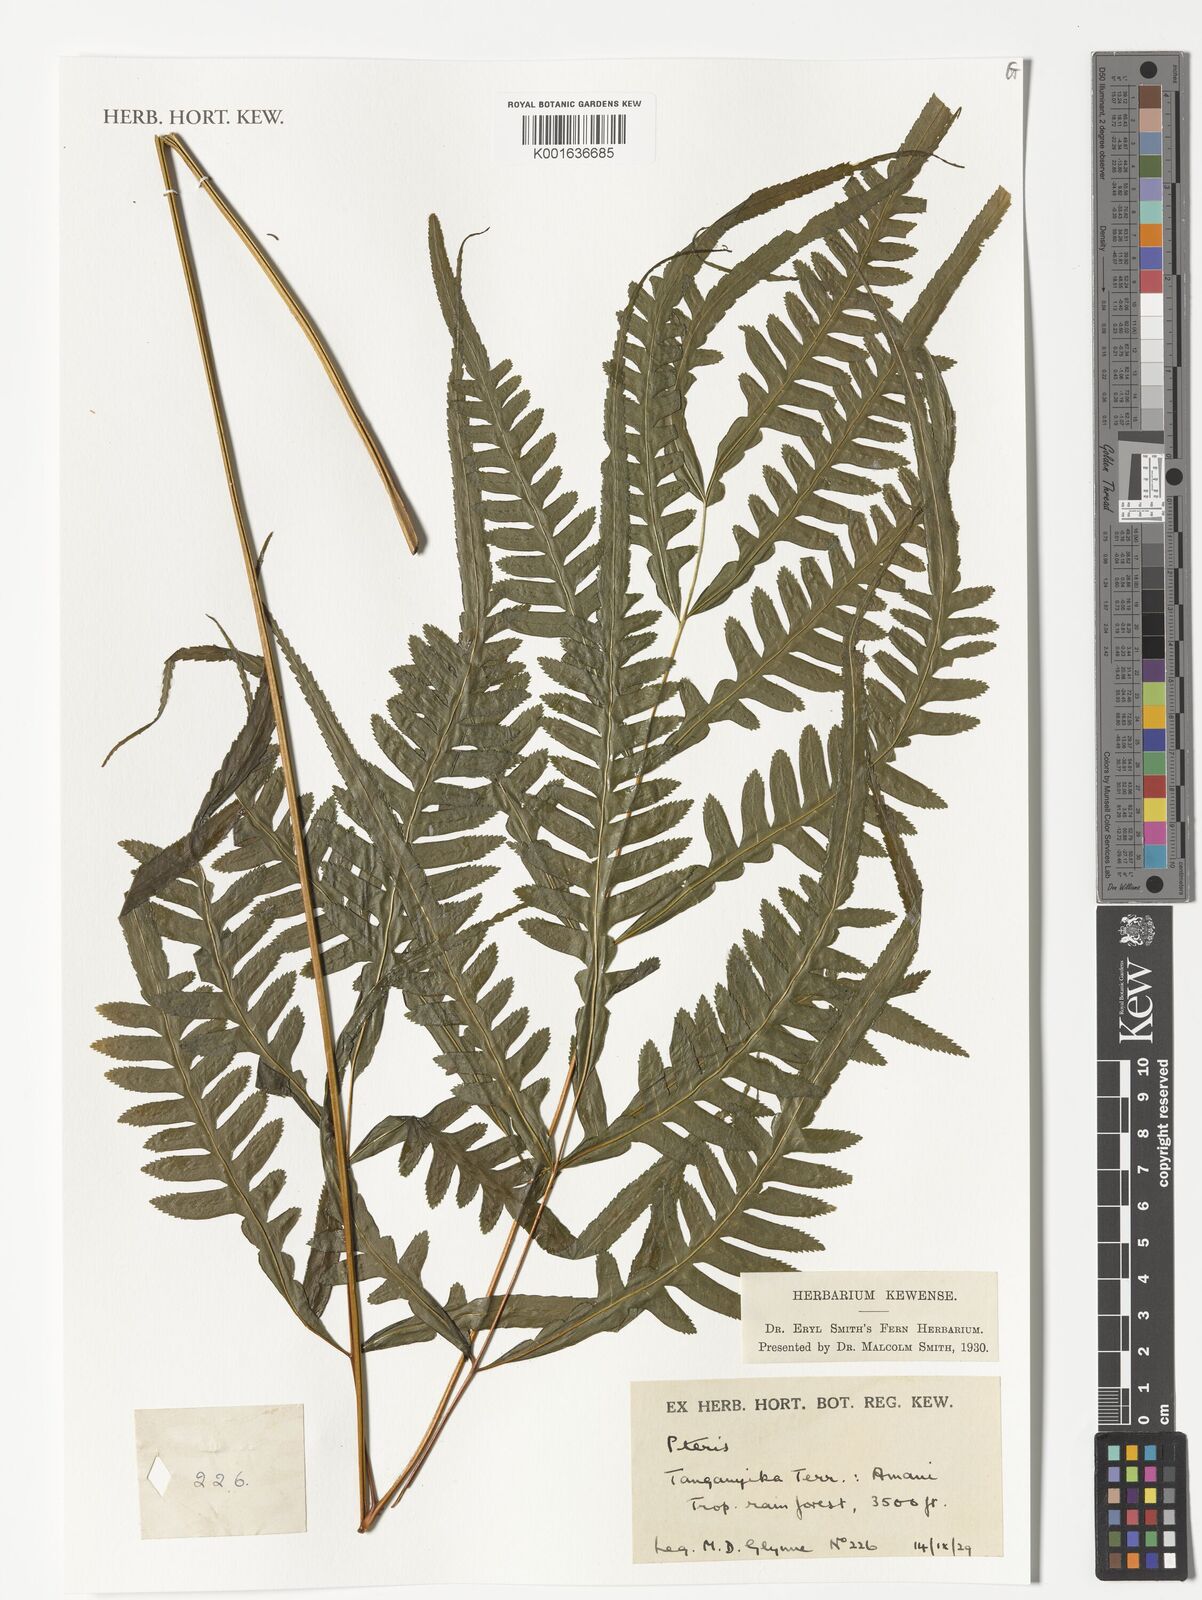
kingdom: Plantae
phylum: Tracheophyta
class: Polypodiopsida
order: Polypodiales
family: Pteridaceae
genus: Pteris
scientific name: Pteris
